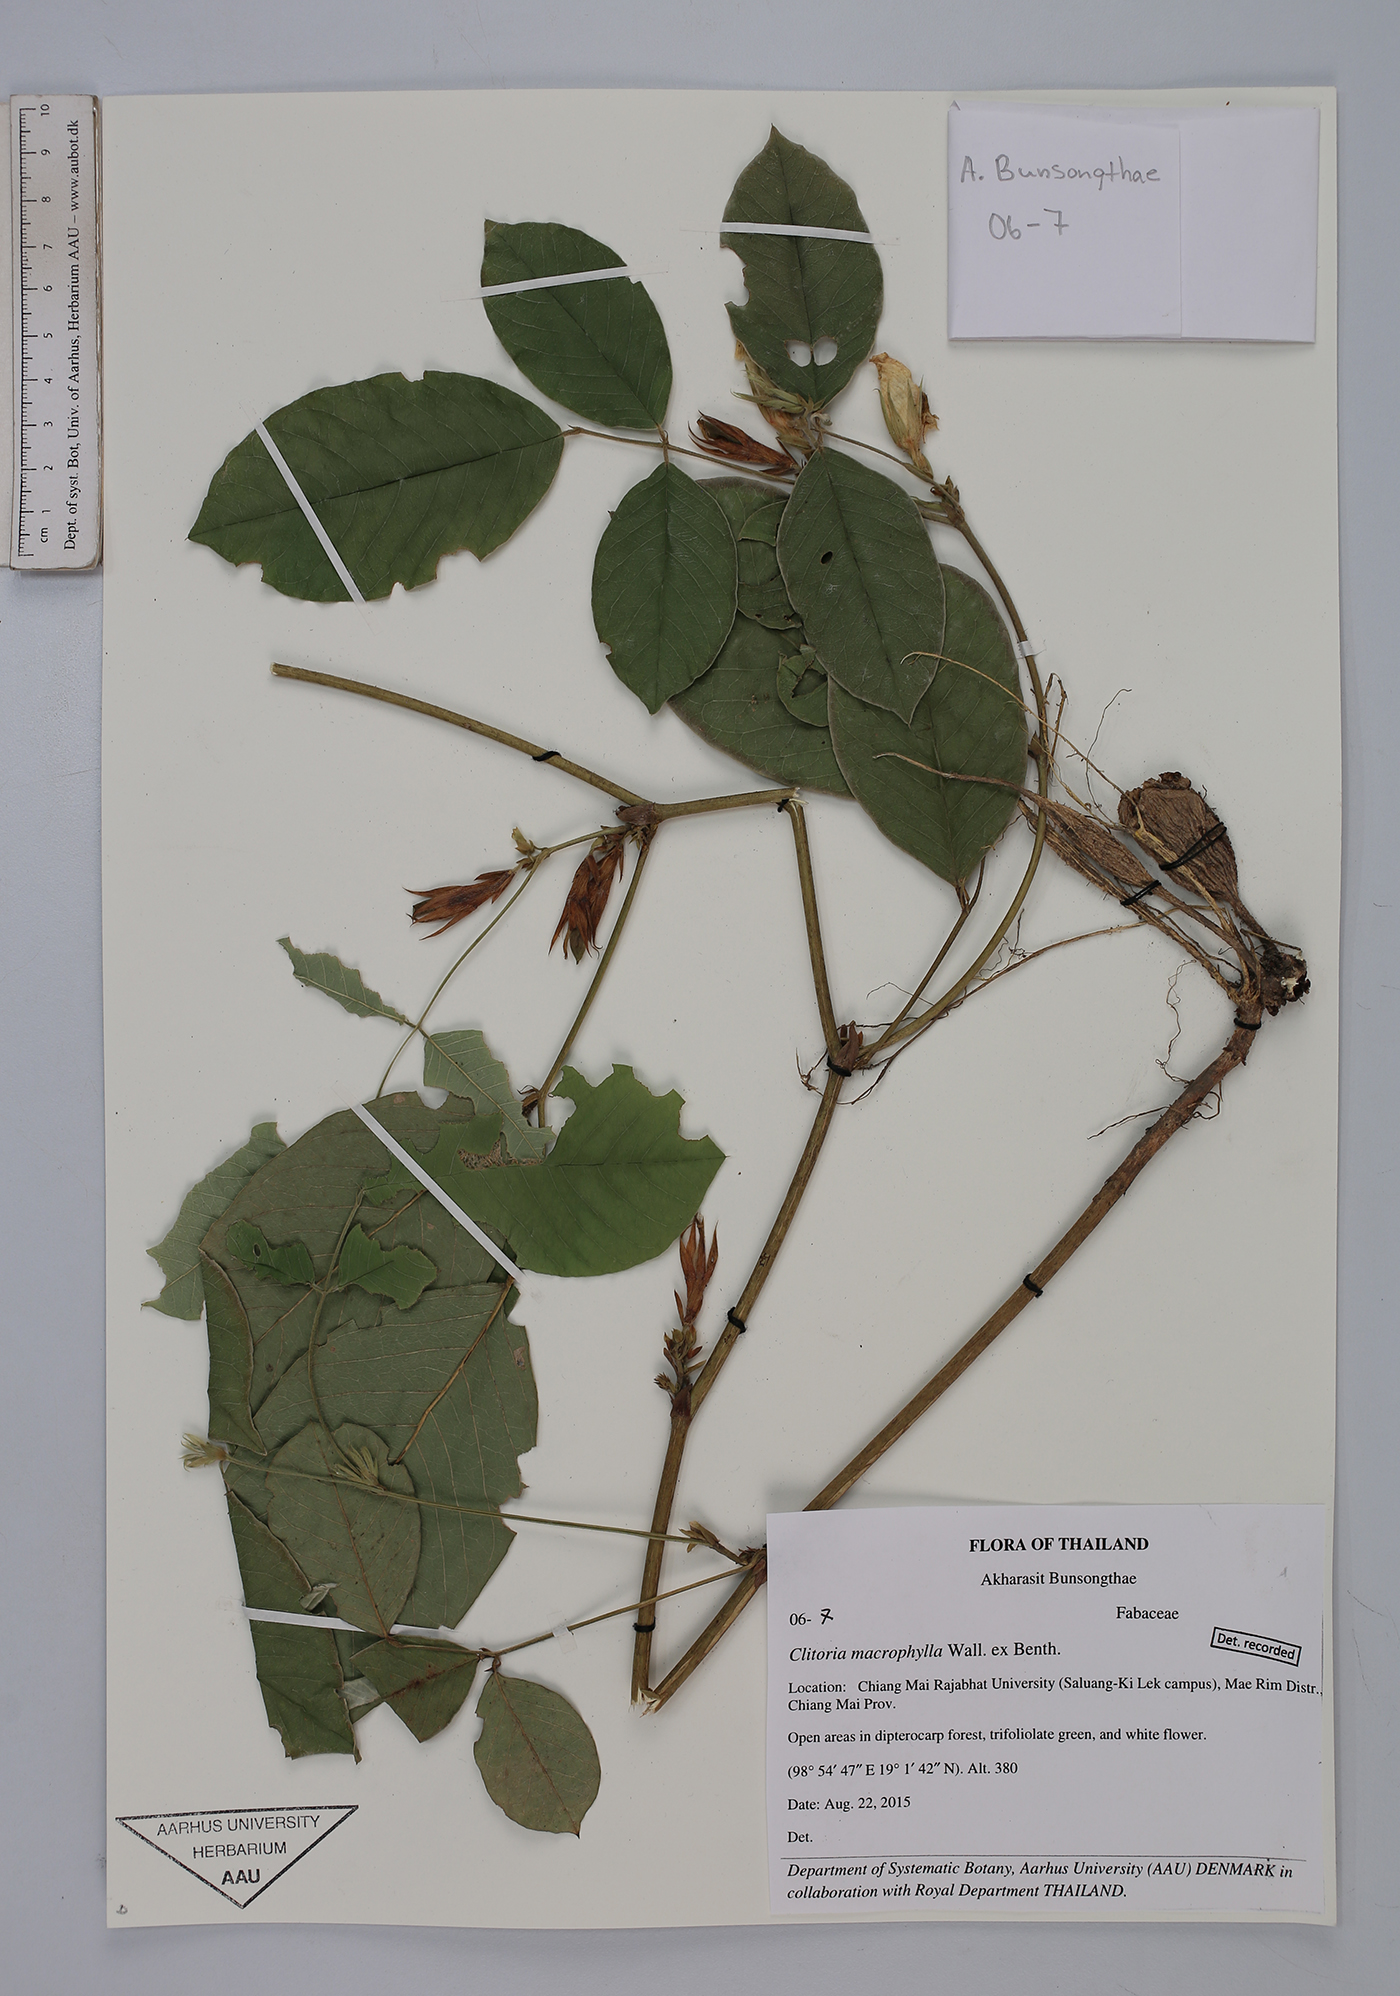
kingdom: Plantae
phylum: Tracheophyta
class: Magnoliopsida
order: Fabales
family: Fabaceae
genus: Clitoria
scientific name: Clitoria macrophylla
